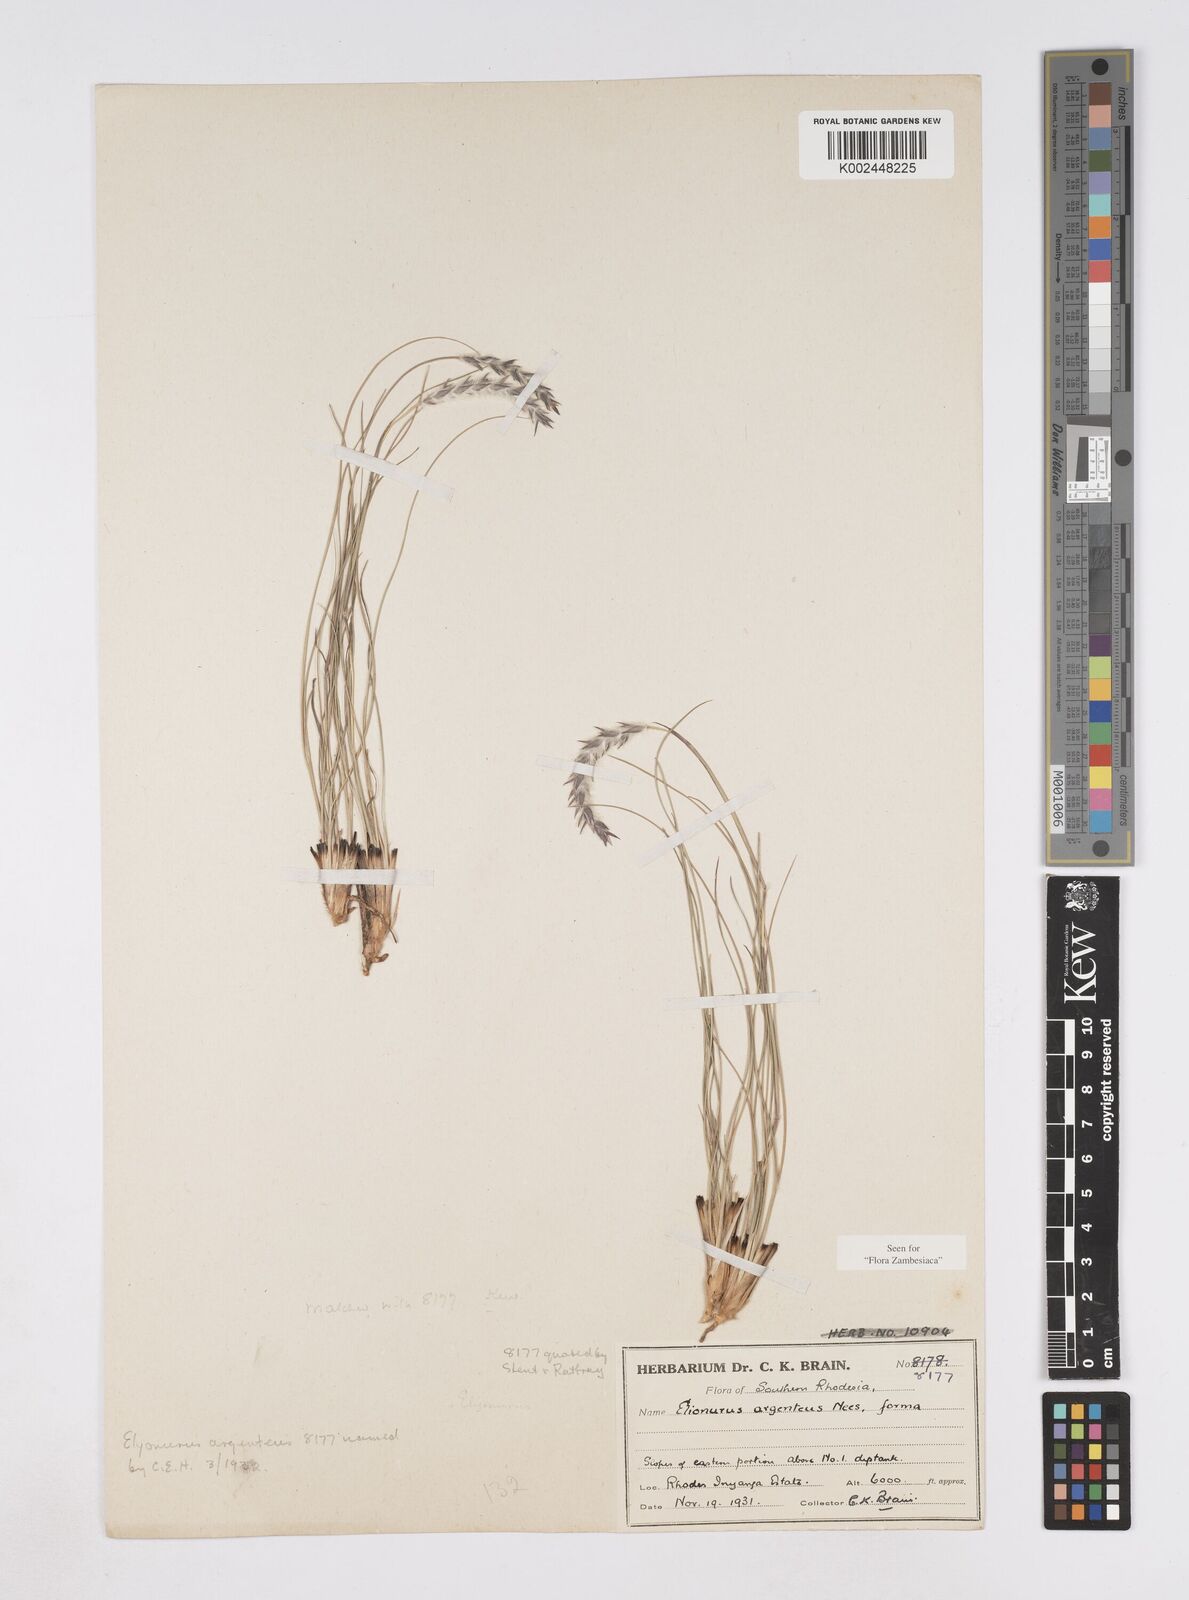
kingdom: Plantae
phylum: Tracheophyta
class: Liliopsida
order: Poales
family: Poaceae
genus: Elionurus
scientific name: Elionurus muticus
